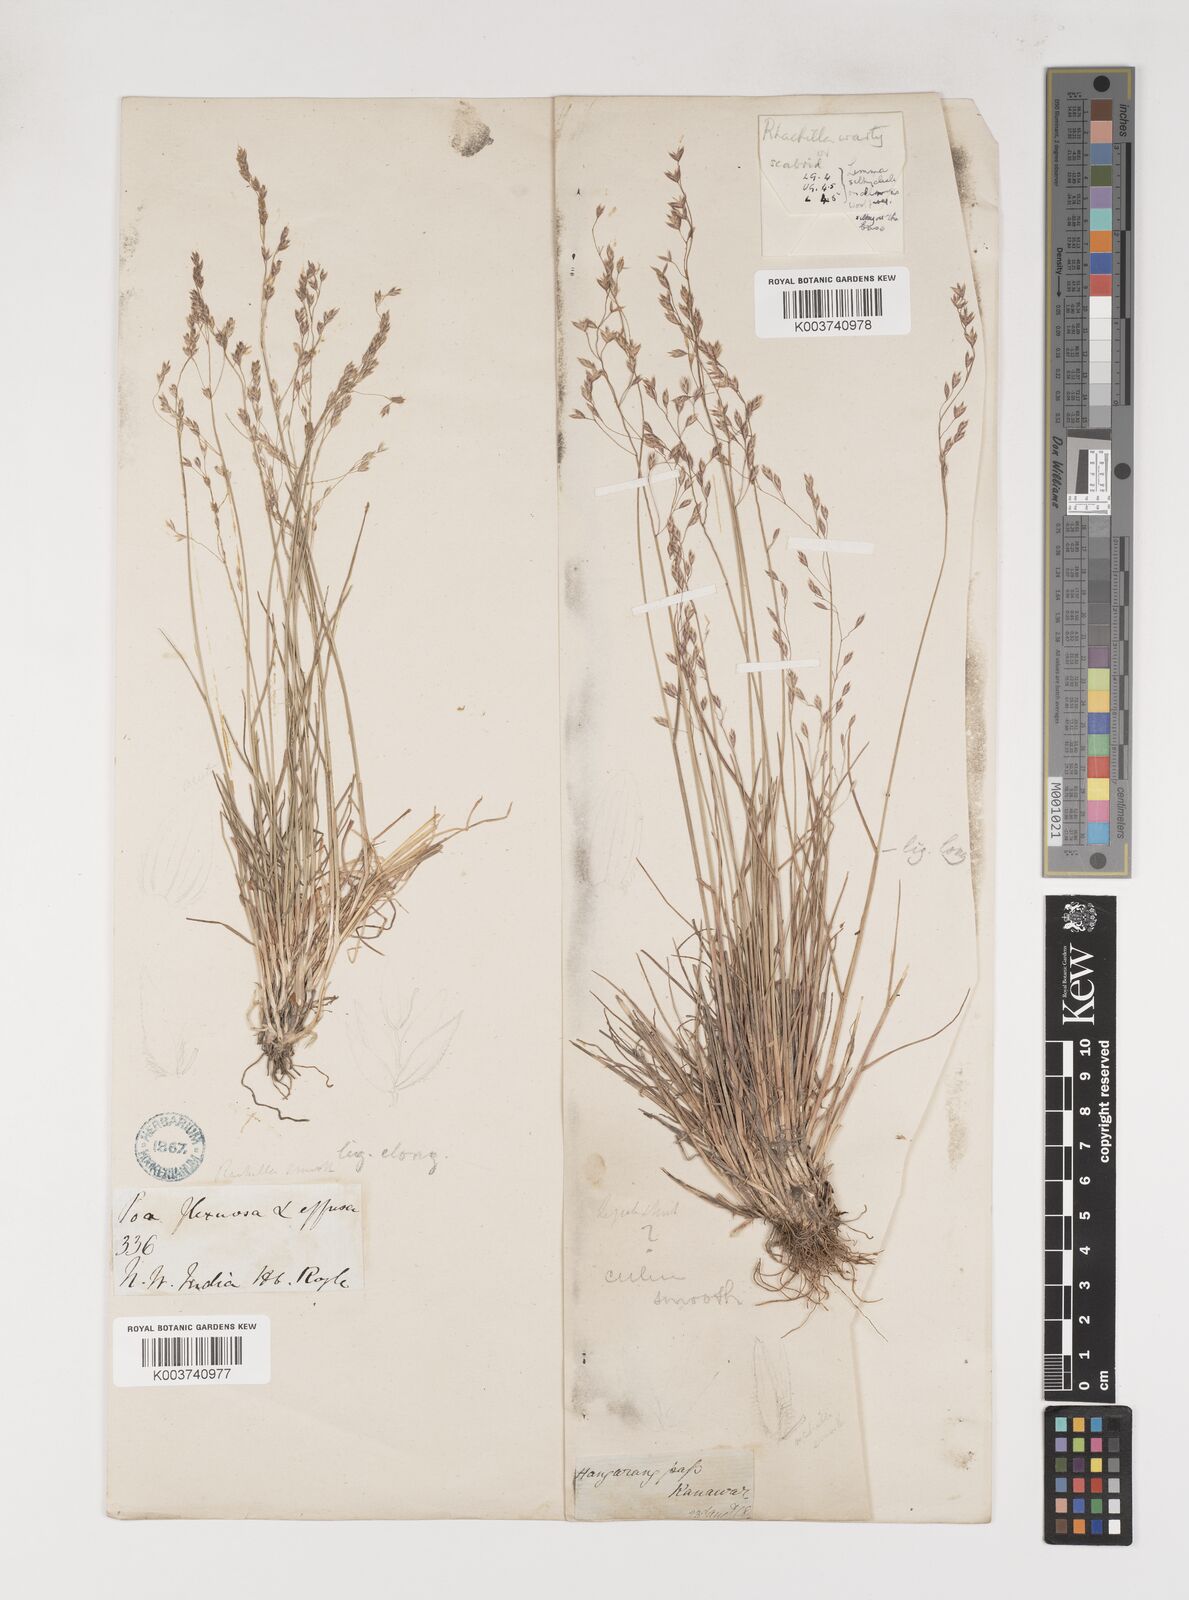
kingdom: Plantae
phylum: Tracheophyta
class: Liliopsida
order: Poales
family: Poaceae
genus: Poa
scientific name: Poa pagophila
